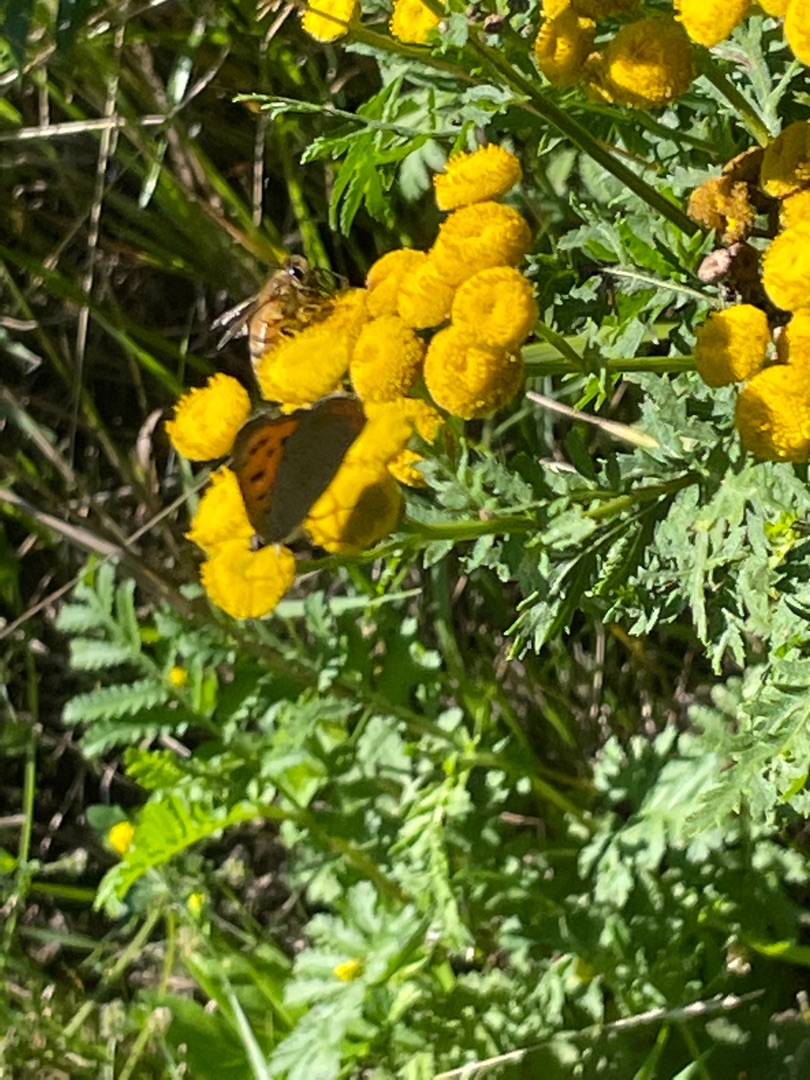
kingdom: Animalia
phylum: Arthropoda
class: Insecta
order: Lepidoptera
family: Lycaenidae
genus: Lycaena
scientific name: Lycaena phlaeas
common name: Lille ildfugl
